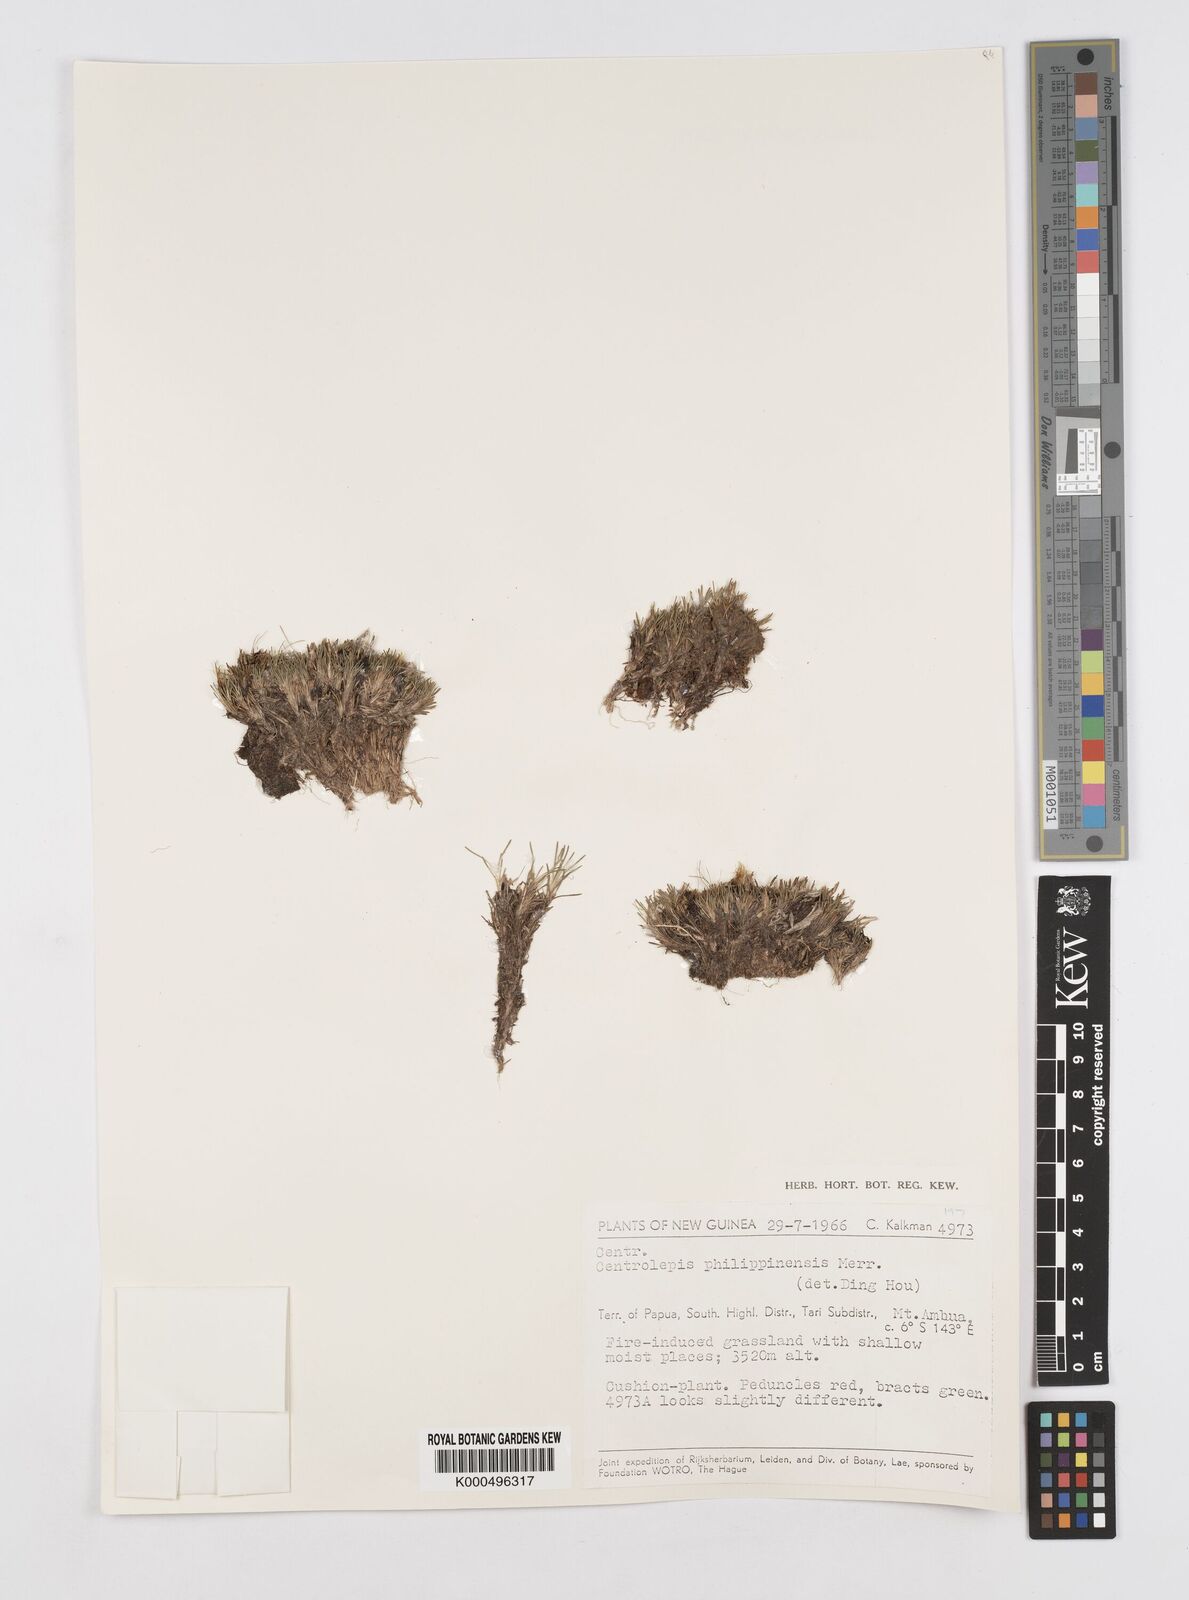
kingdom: Plantae
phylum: Tracheophyta
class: Liliopsida
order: Poales
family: Restionaceae
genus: Centrolepis
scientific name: Centrolepis philippinensis
